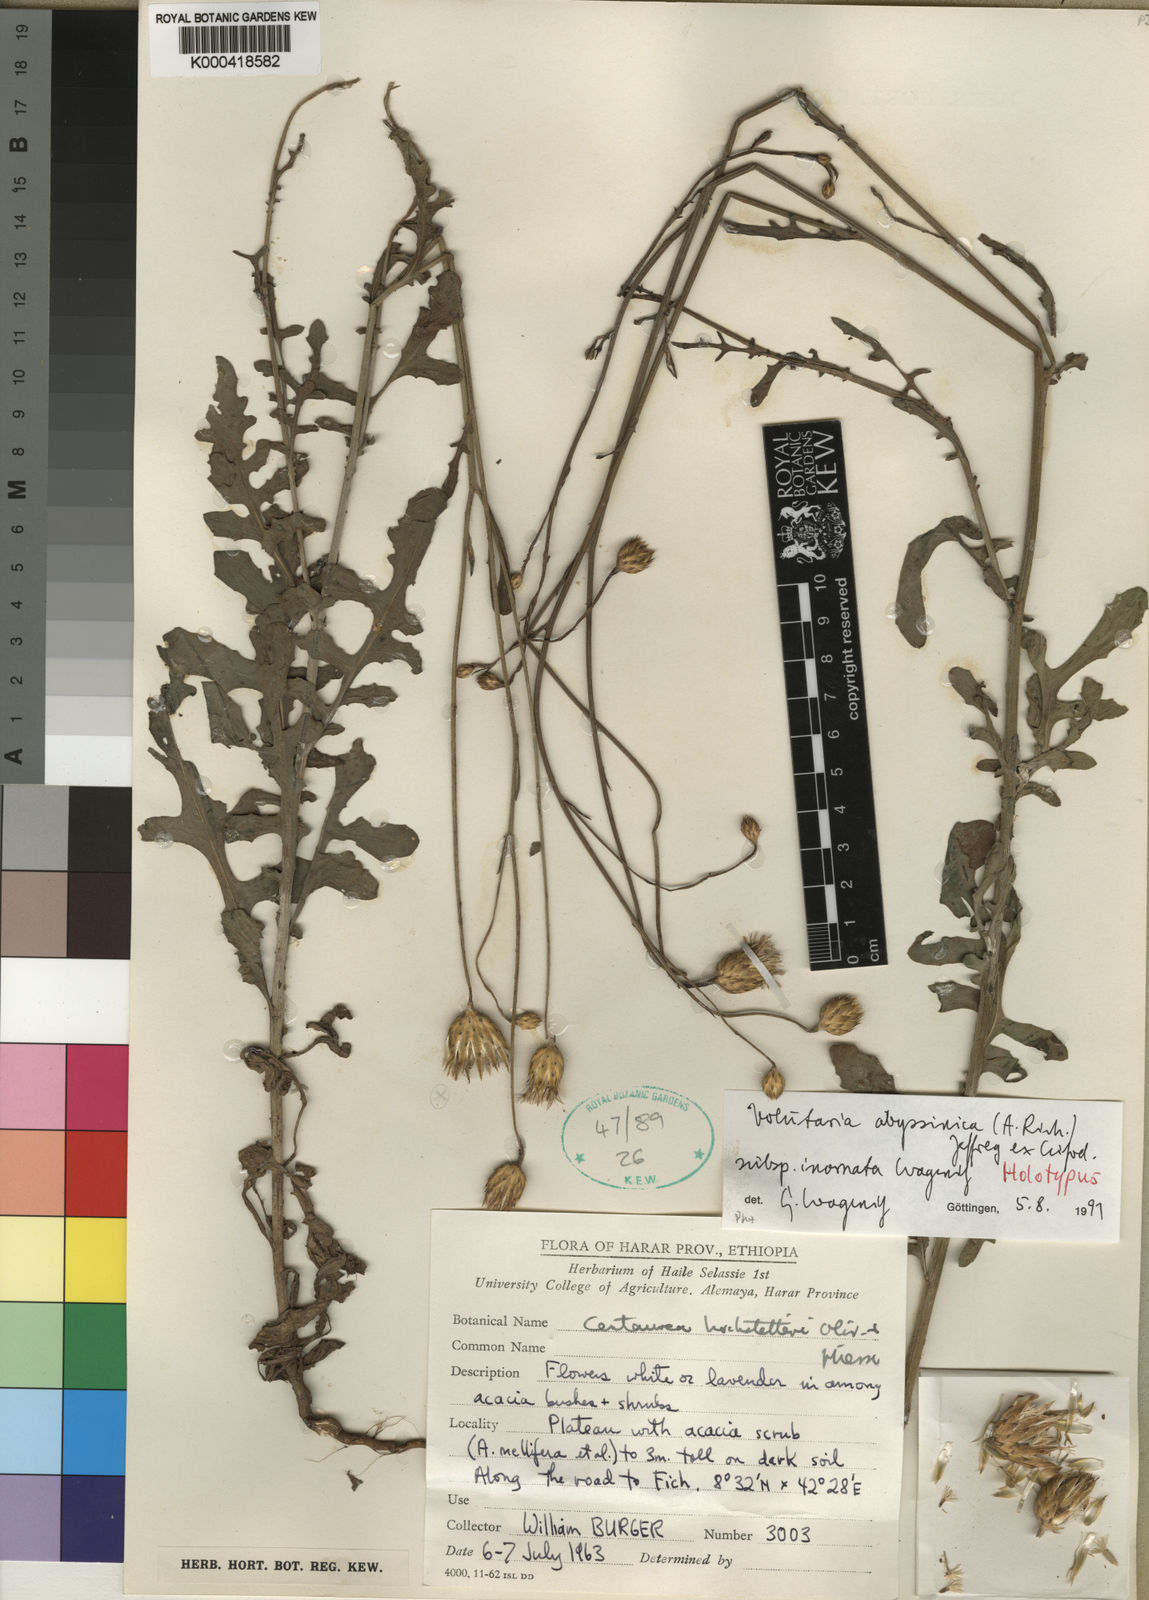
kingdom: Plantae
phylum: Tracheophyta
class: Magnoliopsida
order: Asterales
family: Asteraceae
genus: Volutaria
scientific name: Volutaria
